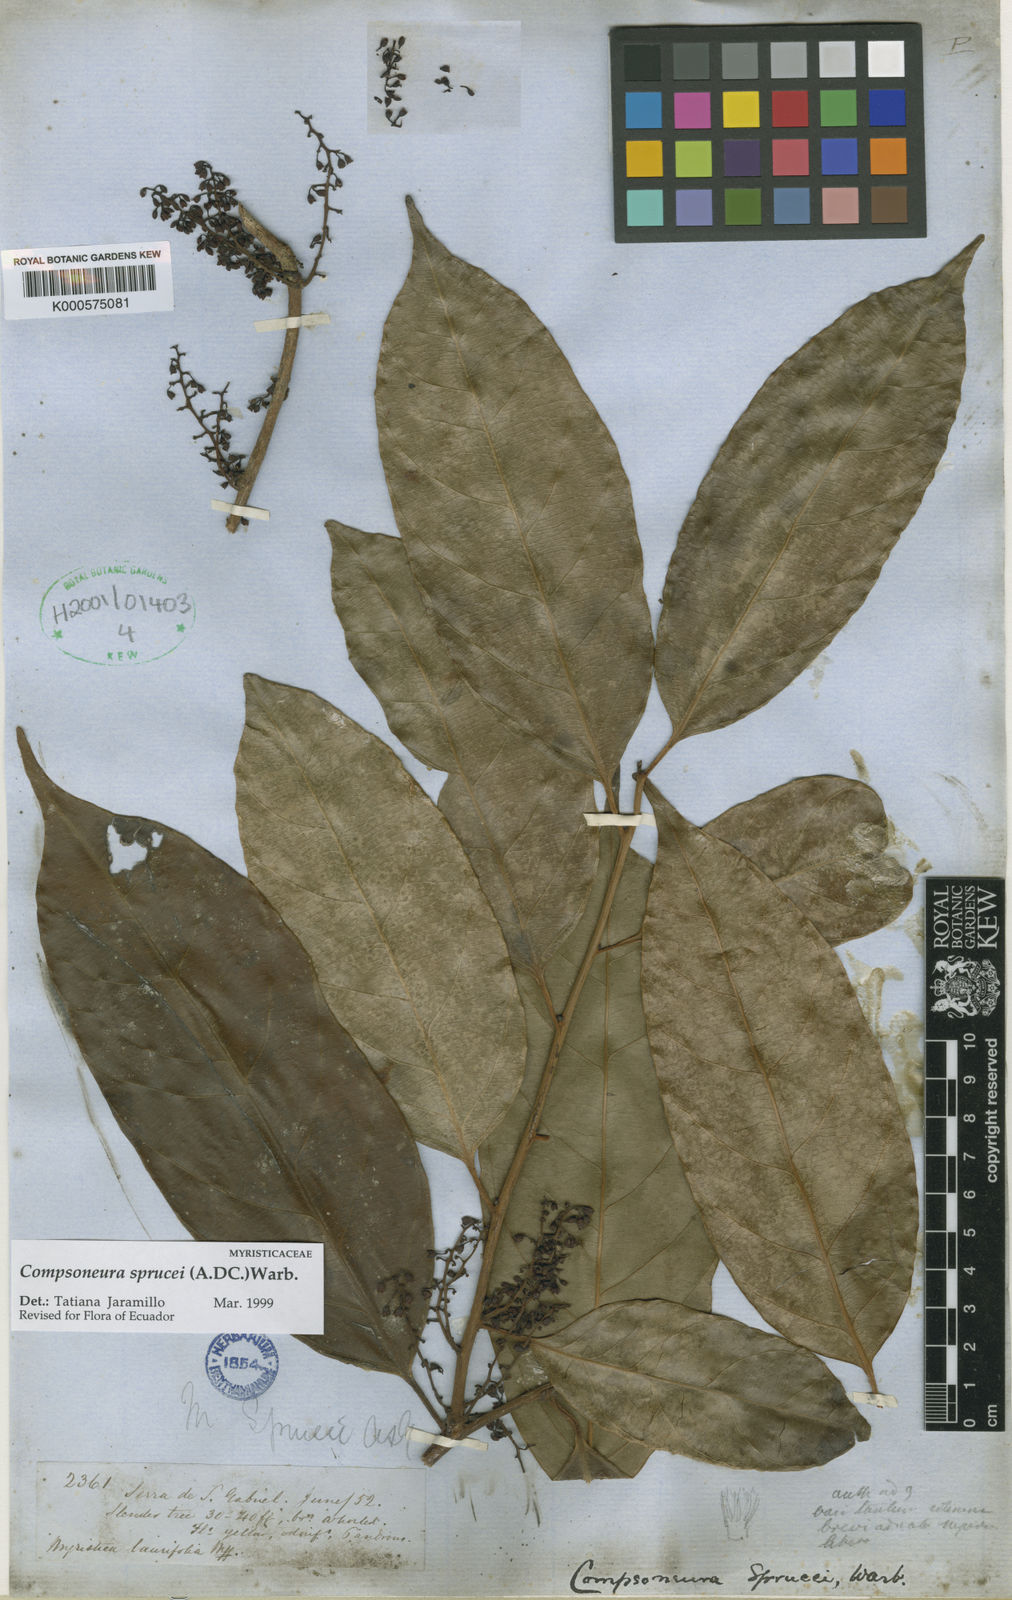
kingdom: Plantae
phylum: Tracheophyta
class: Magnoliopsida
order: Magnoliales
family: Myristicaceae
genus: Compsoneura
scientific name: Compsoneura sprucei
